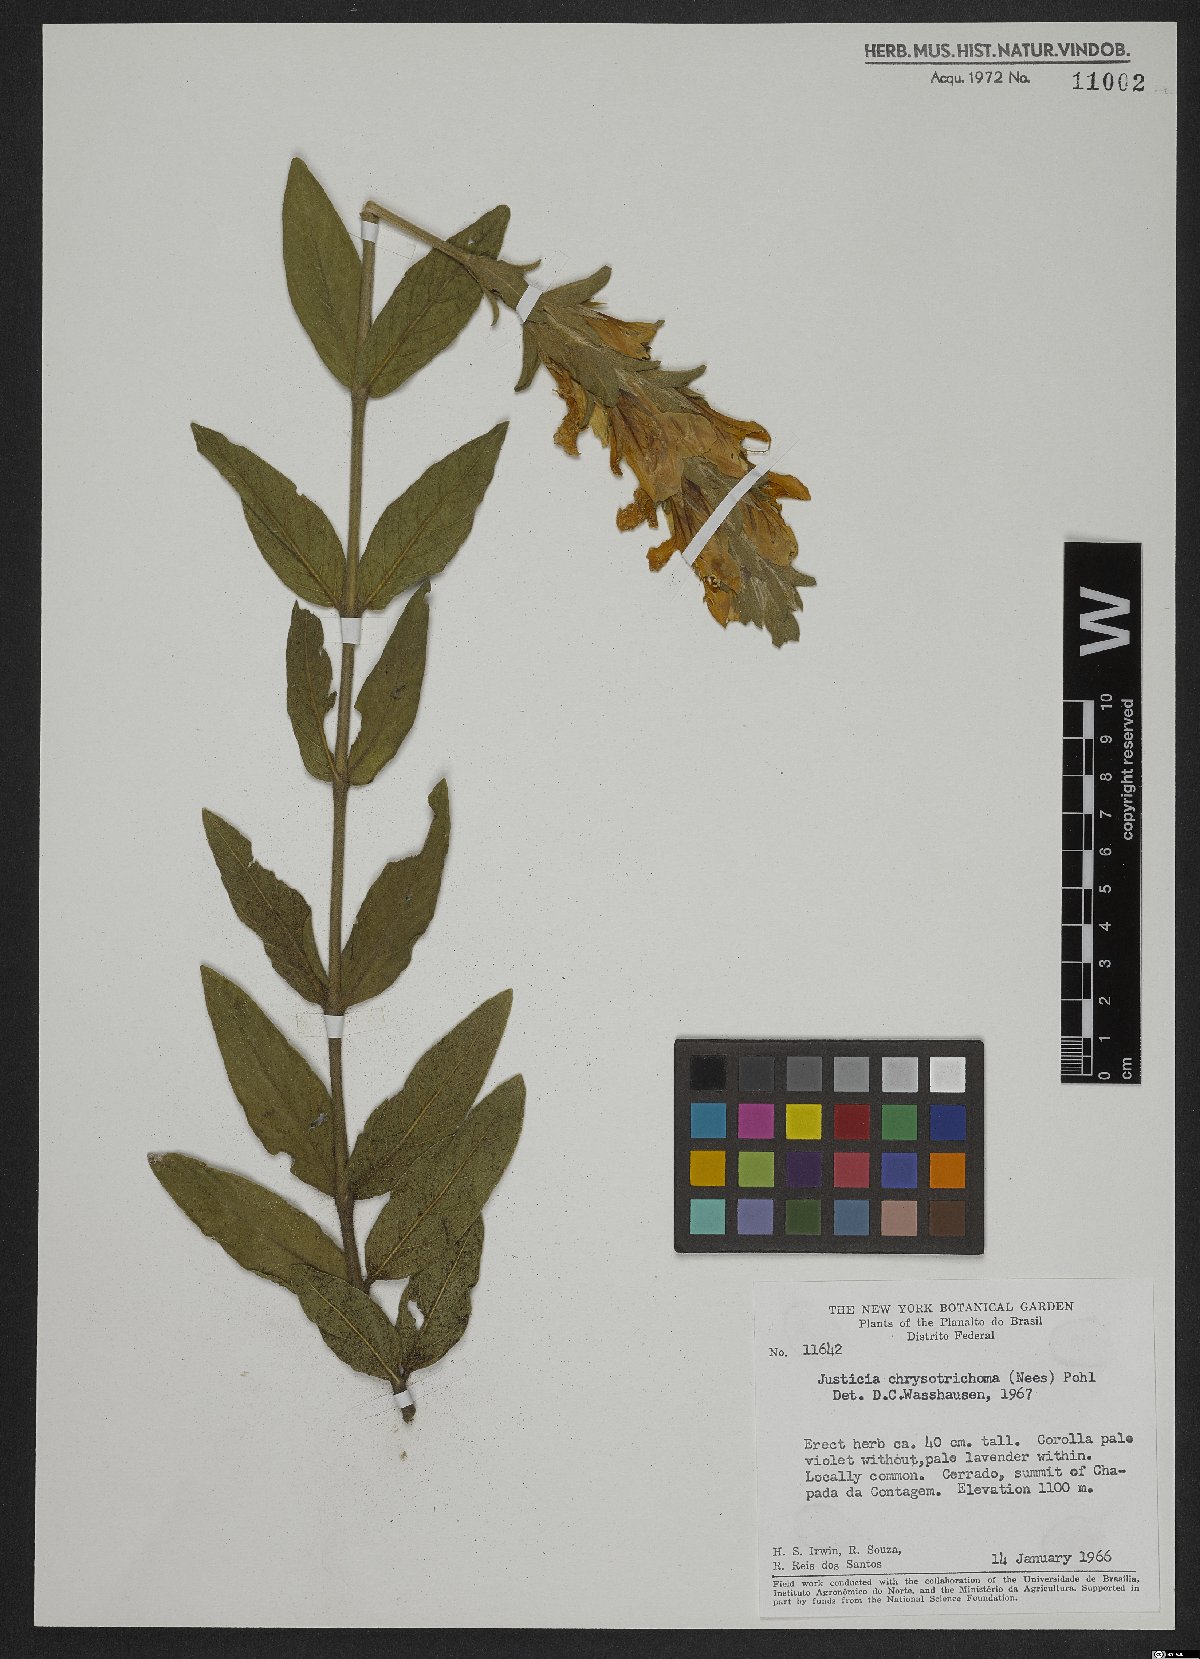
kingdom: Plantae
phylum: Tracheophyta
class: Magnoliopsida
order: Lamiales
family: Acanthaceae
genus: Justicia
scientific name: Justicia chrysotrichoma
